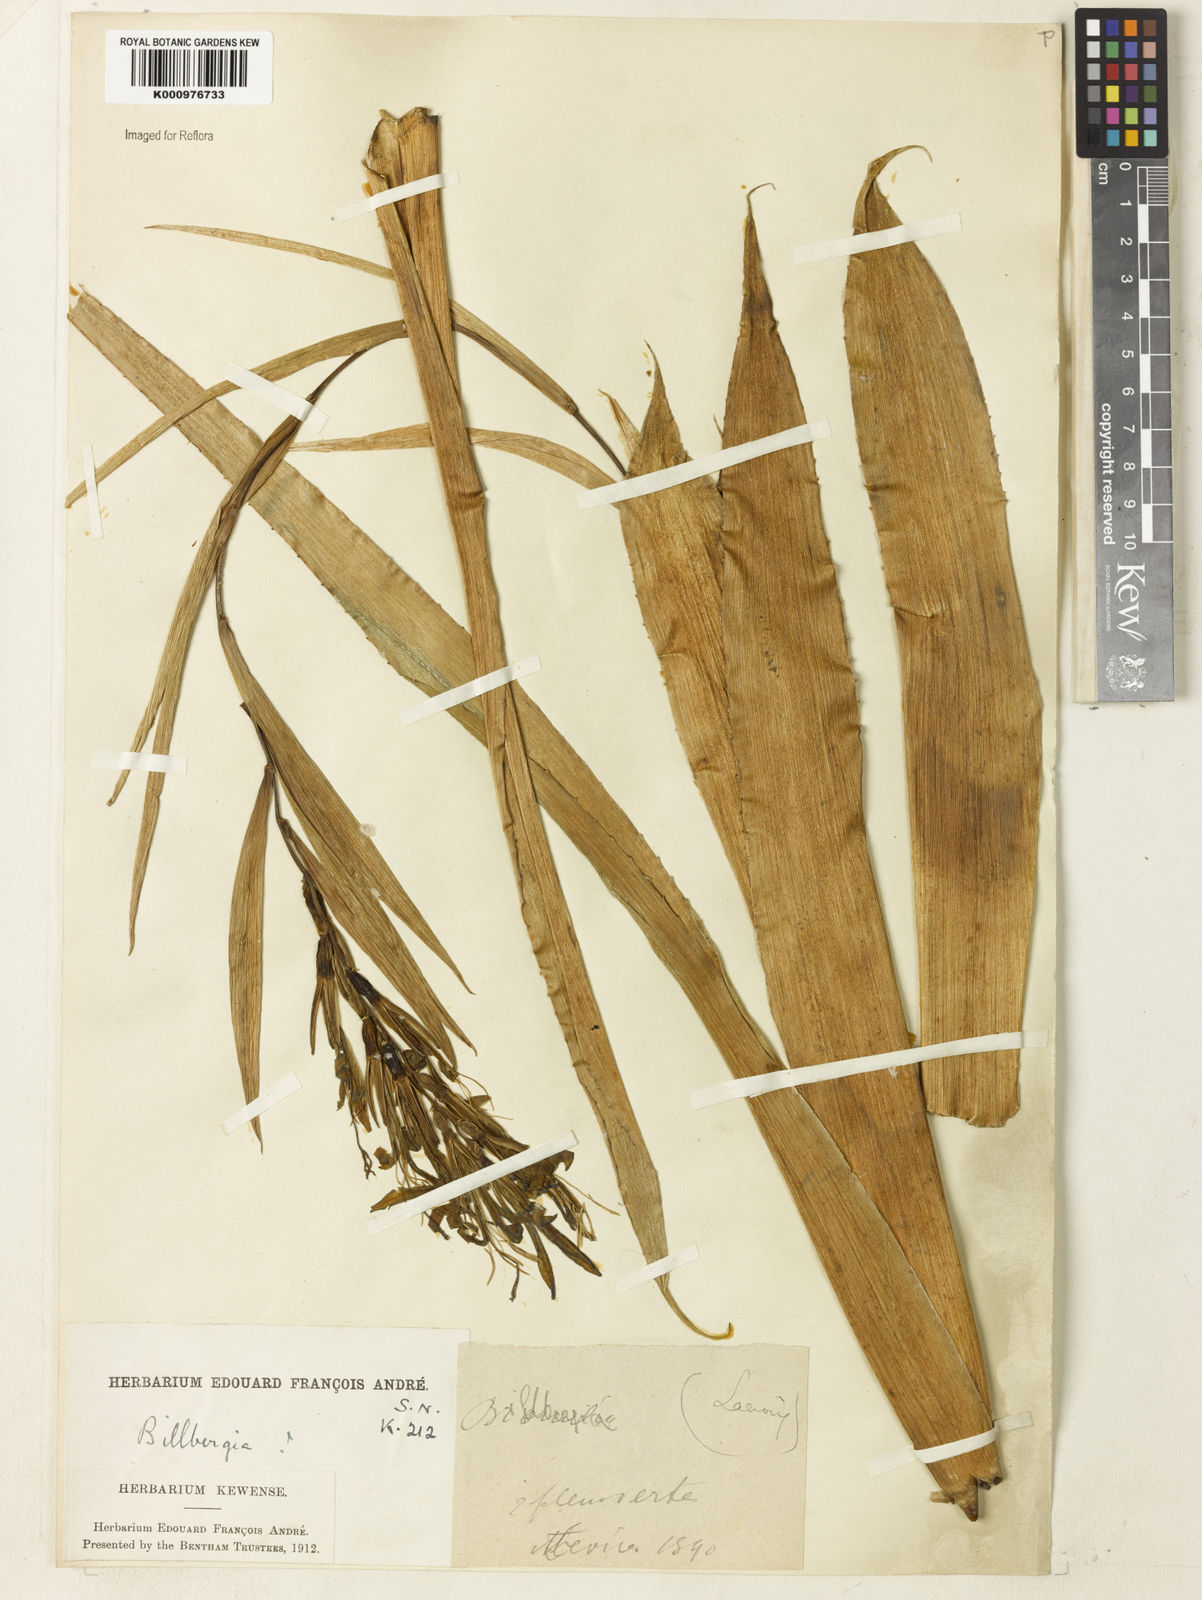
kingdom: Plantae
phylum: Tracheophyta
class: Liliopsida
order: Poales
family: Bromeliaceae
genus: Billbergia
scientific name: Billbergia
